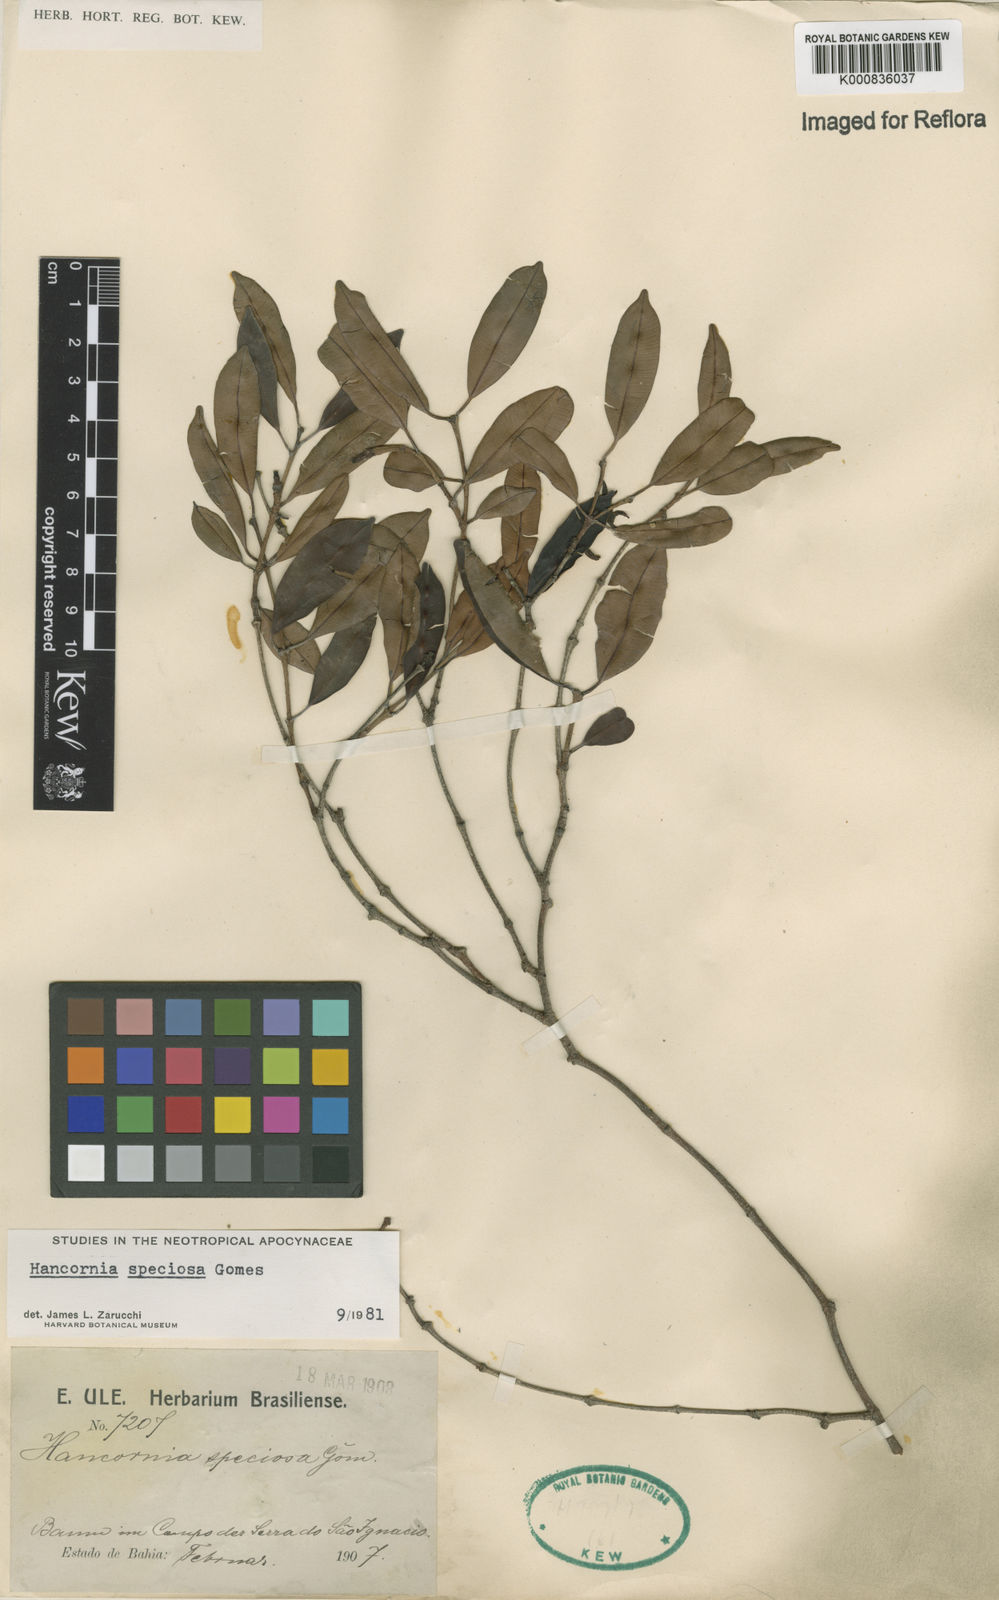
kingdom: Plantae
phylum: Tracheophyta
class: Magnoliopsida
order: Gentianales
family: Apocynaceae
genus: Hancornia
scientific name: Hancornia speciosa
